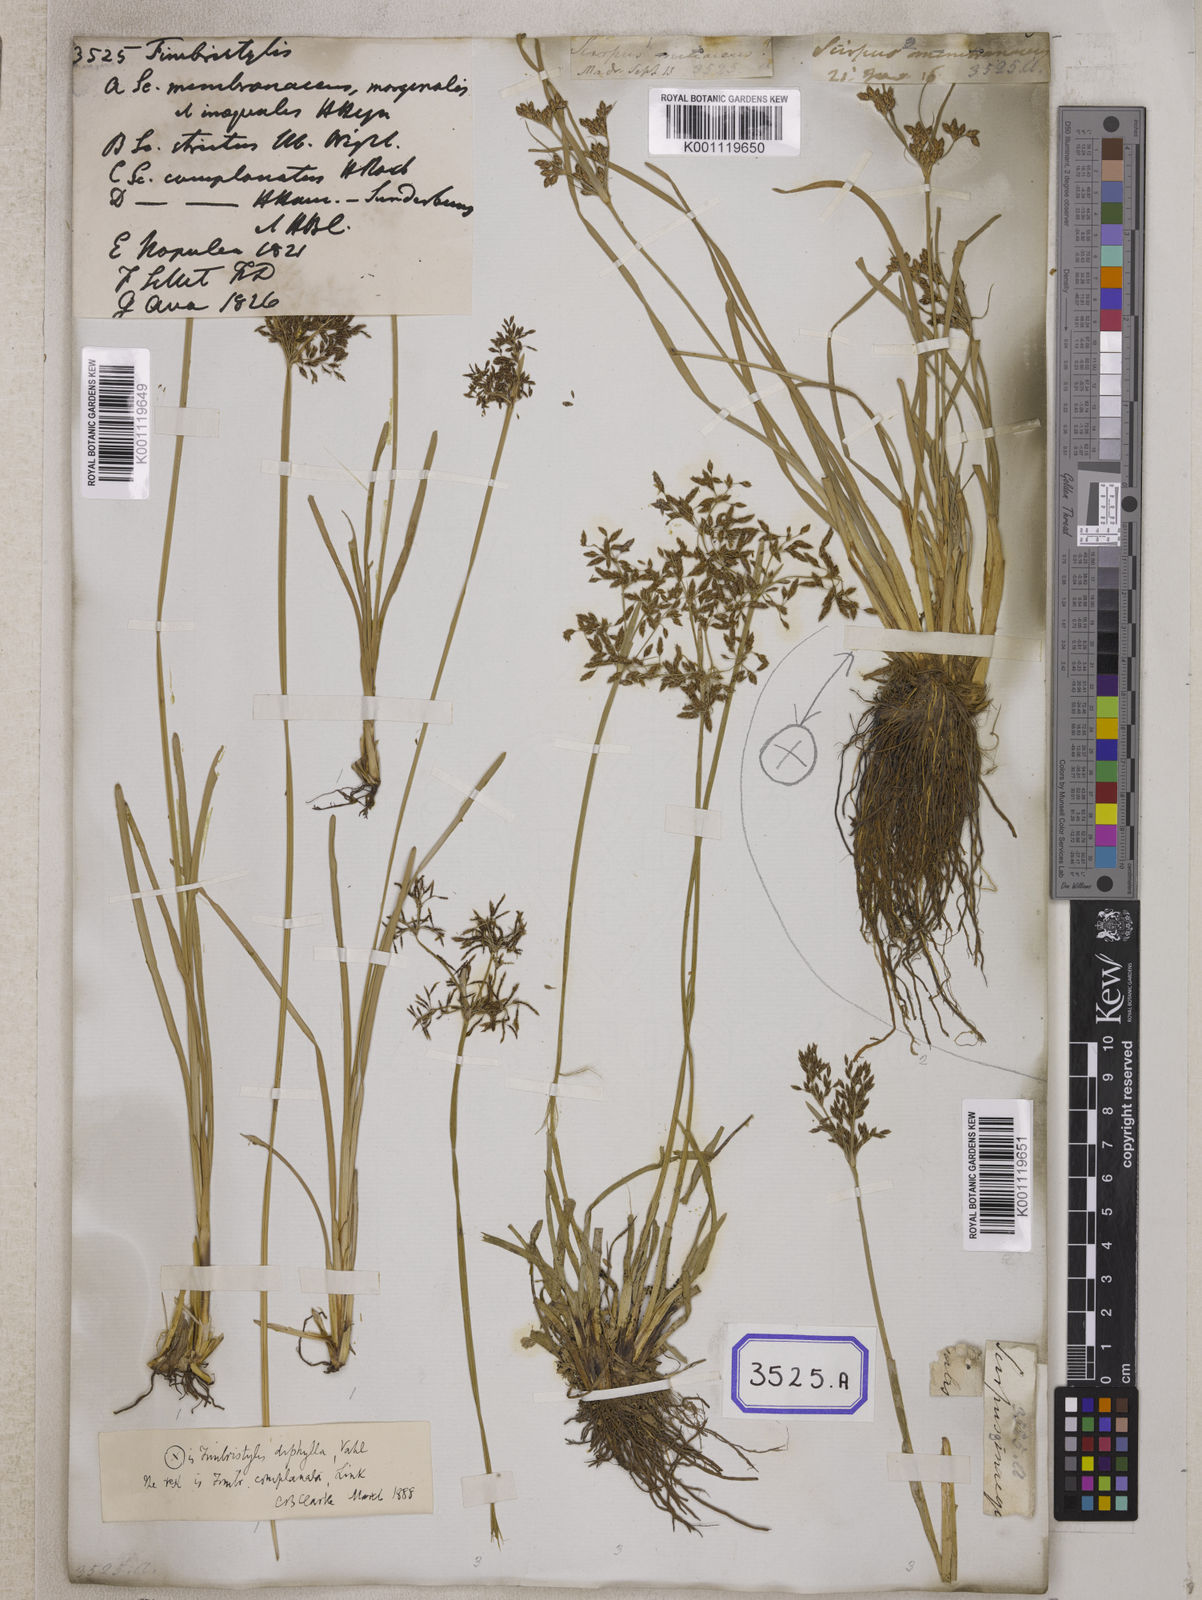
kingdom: Plantae
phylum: Tracheophyta
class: Liliopsida
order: Poales
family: Cyperaceae
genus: Fimbristylis
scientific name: Fimbristylis
